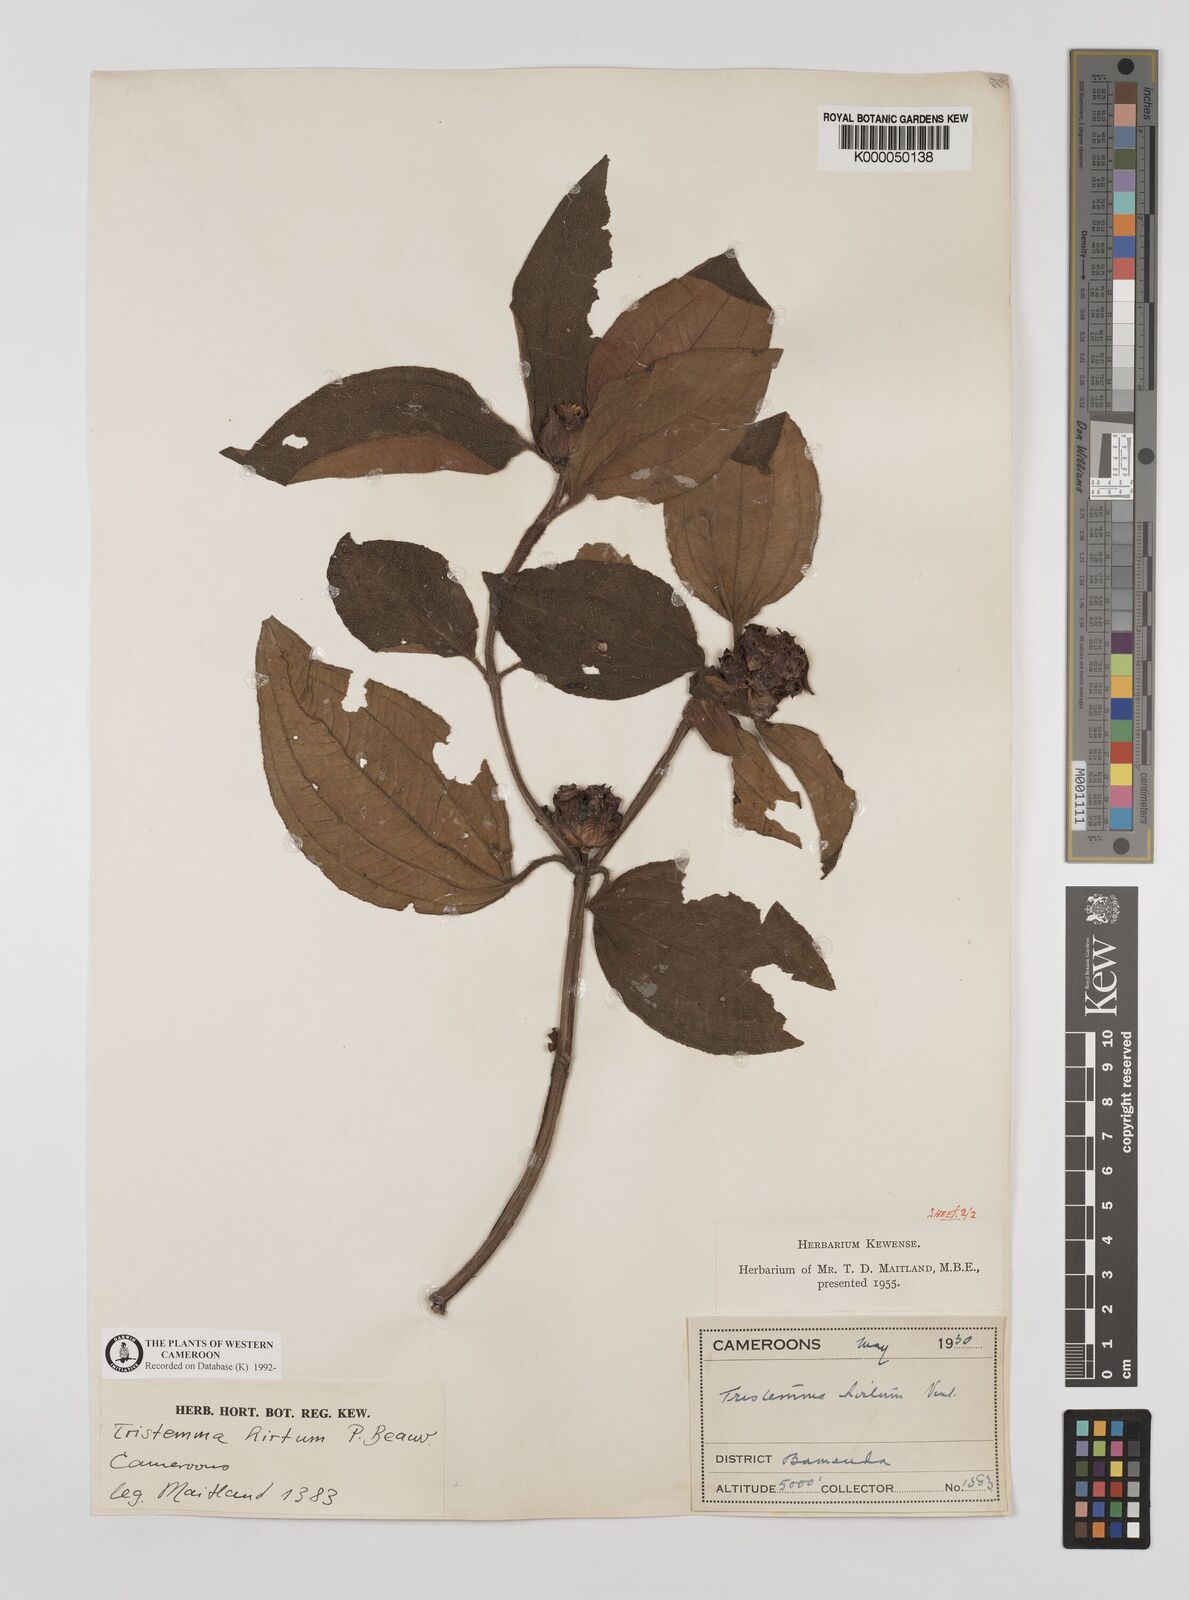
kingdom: Plantae
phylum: Tracheophyta
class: Magnoliopsida
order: Myrtales
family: Melastomataceae
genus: Tristemma
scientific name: Tristemma
